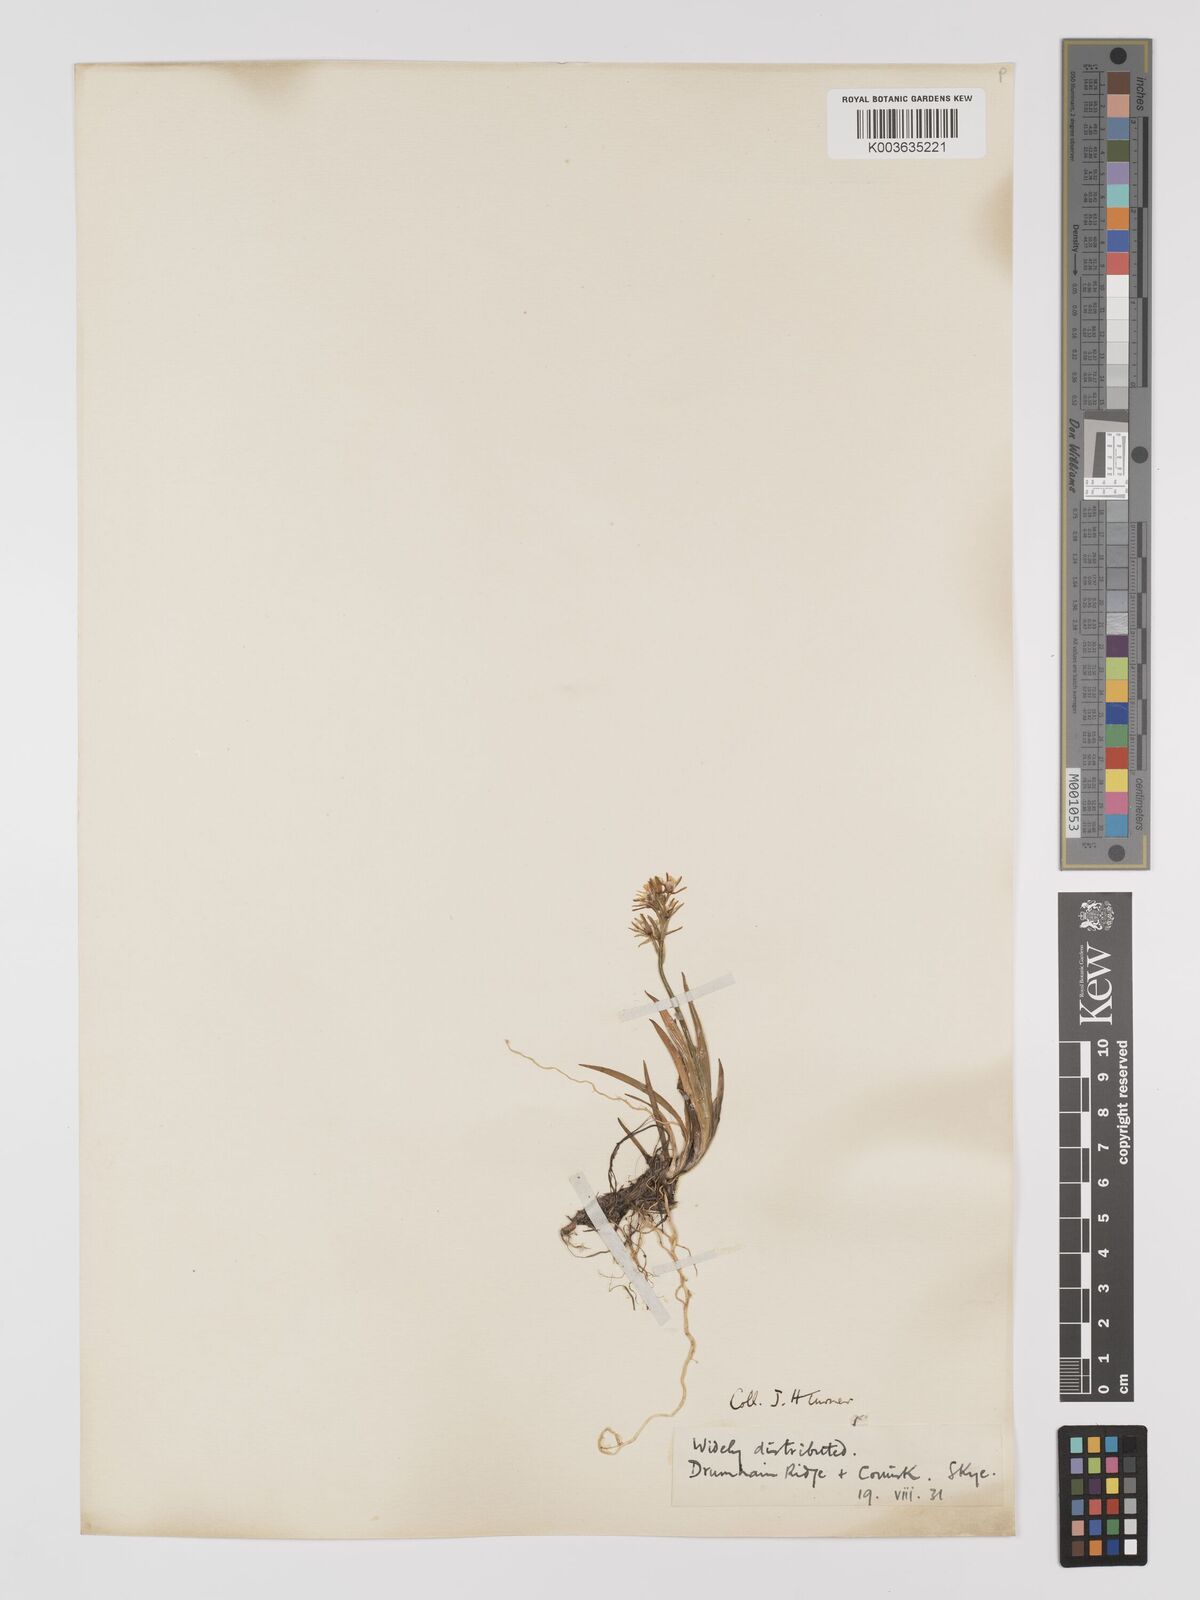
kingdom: Plantae
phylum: Tracheophyta
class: Liliopsida
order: Dioscoreales
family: Nartheciaceae
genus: Narthecium
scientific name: Narthecium
